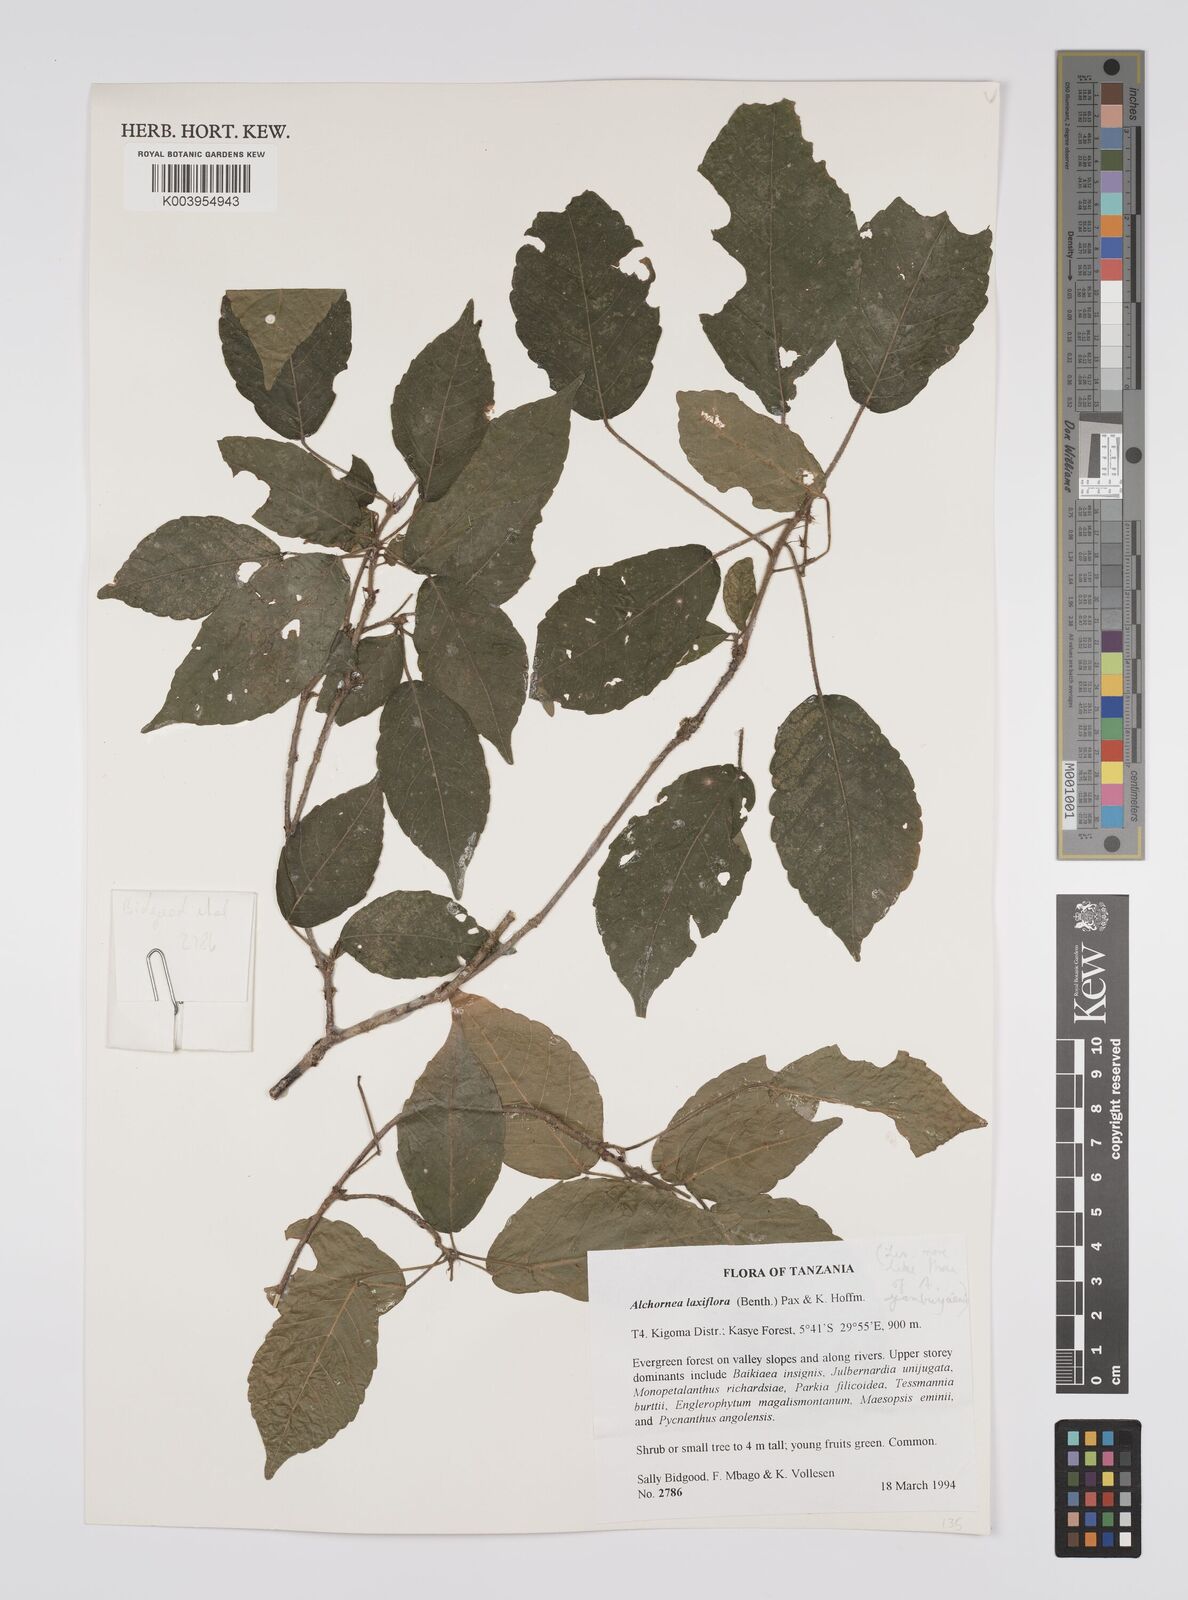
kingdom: Plantae
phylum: Tracheophyta
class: Magnoliopsida
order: Malpighiales
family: Euphorbiaceae
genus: Alchornea
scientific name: Alchornea laxiflora
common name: Lowveld bead-string
